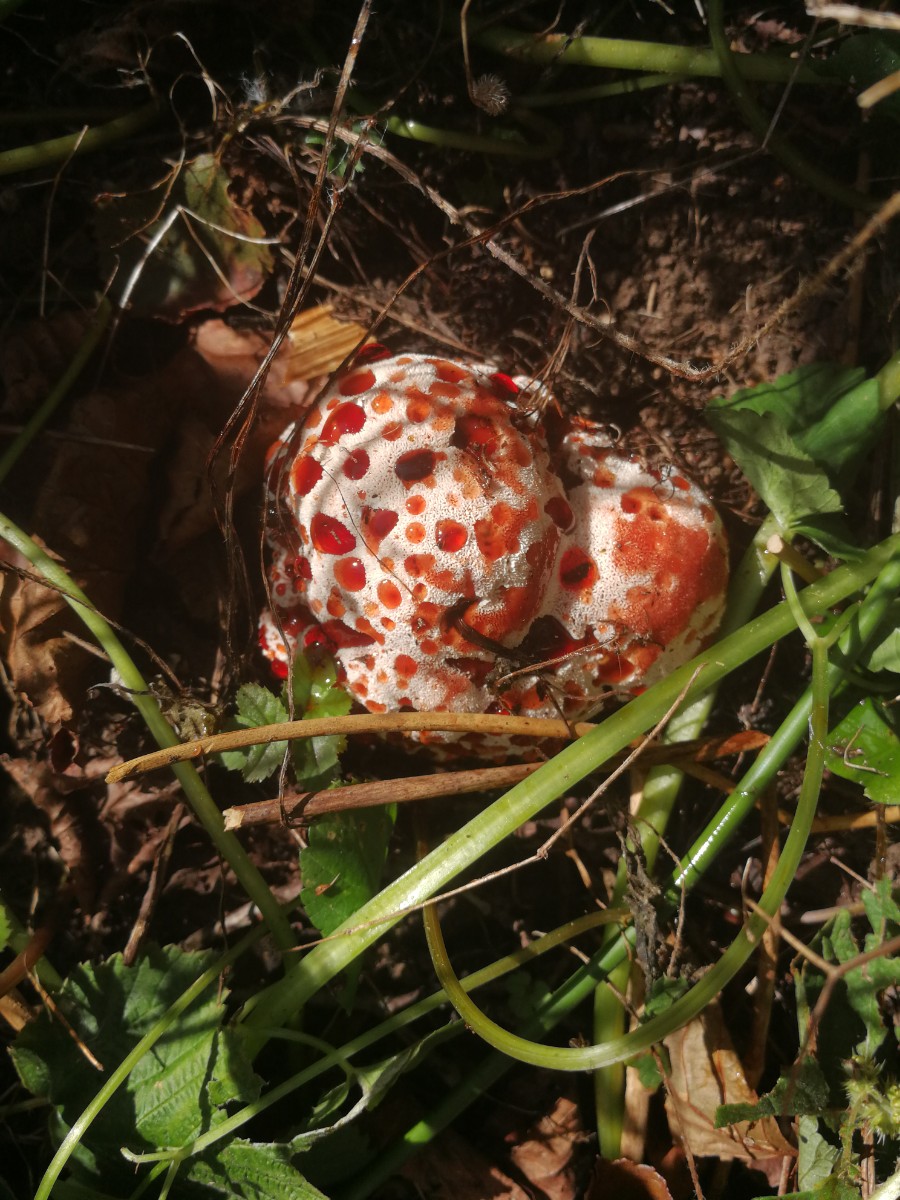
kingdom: Fungi
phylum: Basidiomycota
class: Agaricomycetes
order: Polyporales
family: Podoscyphaceae
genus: Abortiporus
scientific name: Abortiporus biennis
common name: rødmende pjalteporesvamp
